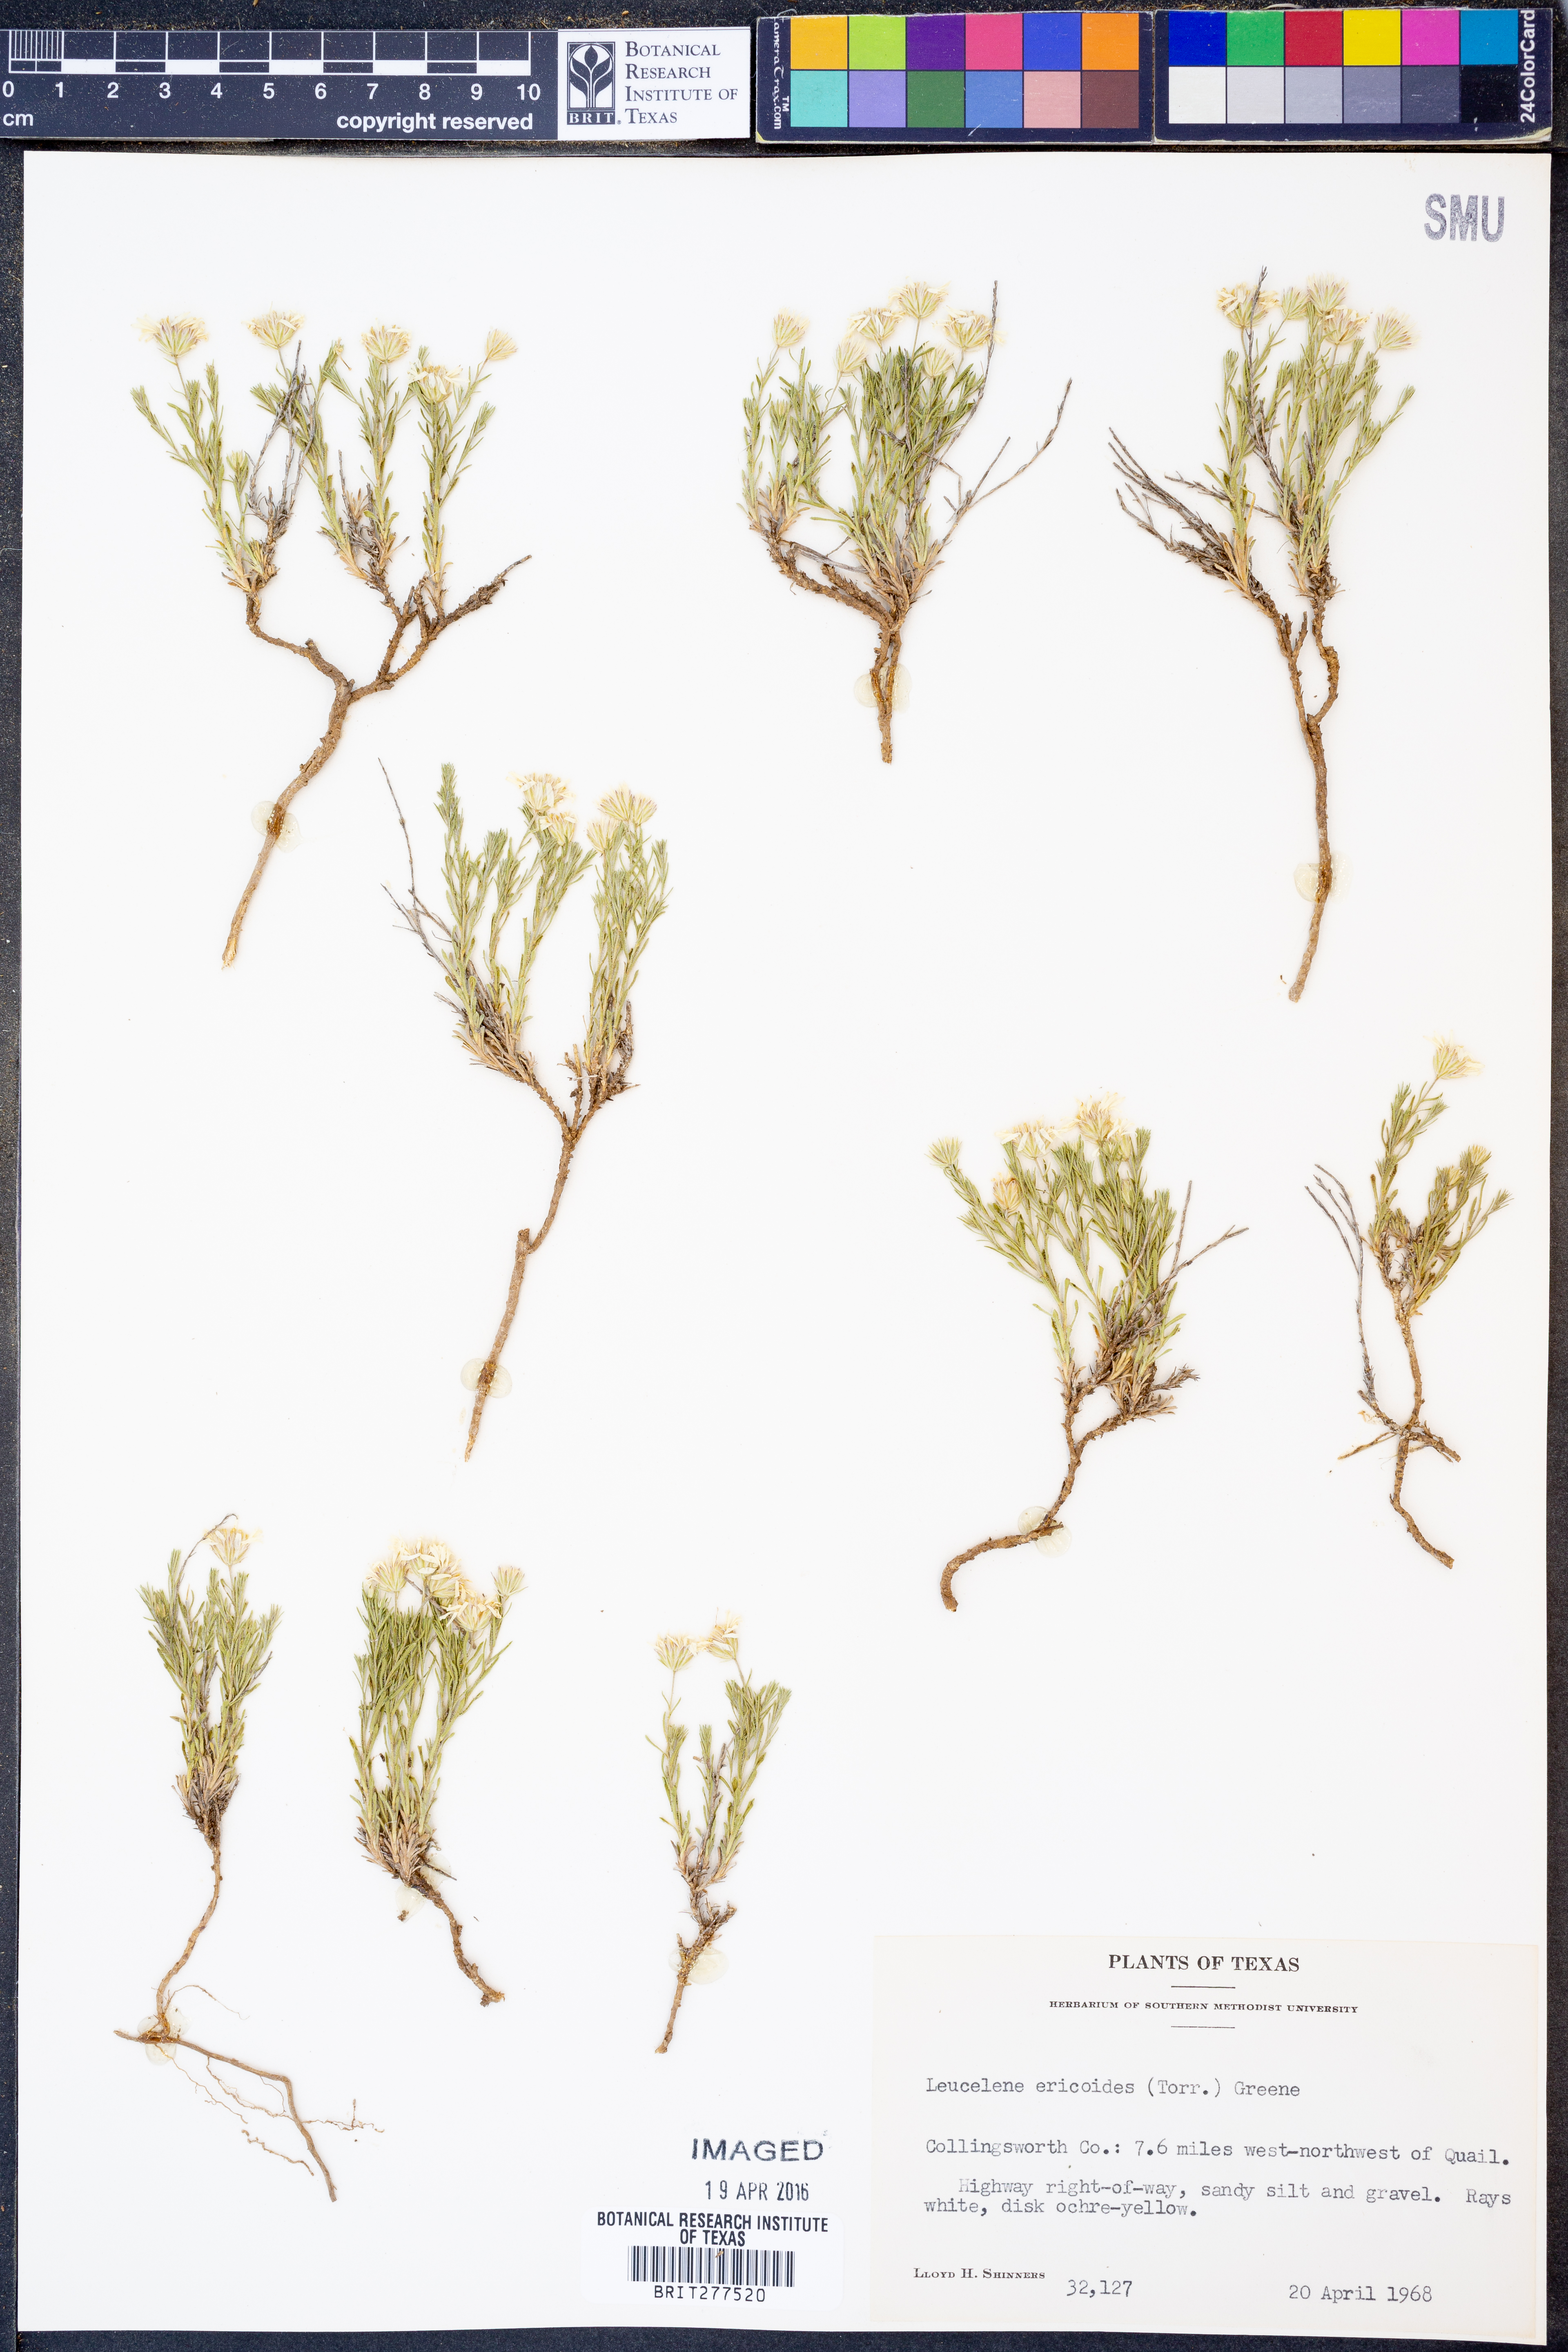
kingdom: Plantae
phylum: Tracheophyta
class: Magnoliopsida
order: Asterales
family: Asteraceae
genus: Chaetopappa
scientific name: Chaetopappa ericoides
